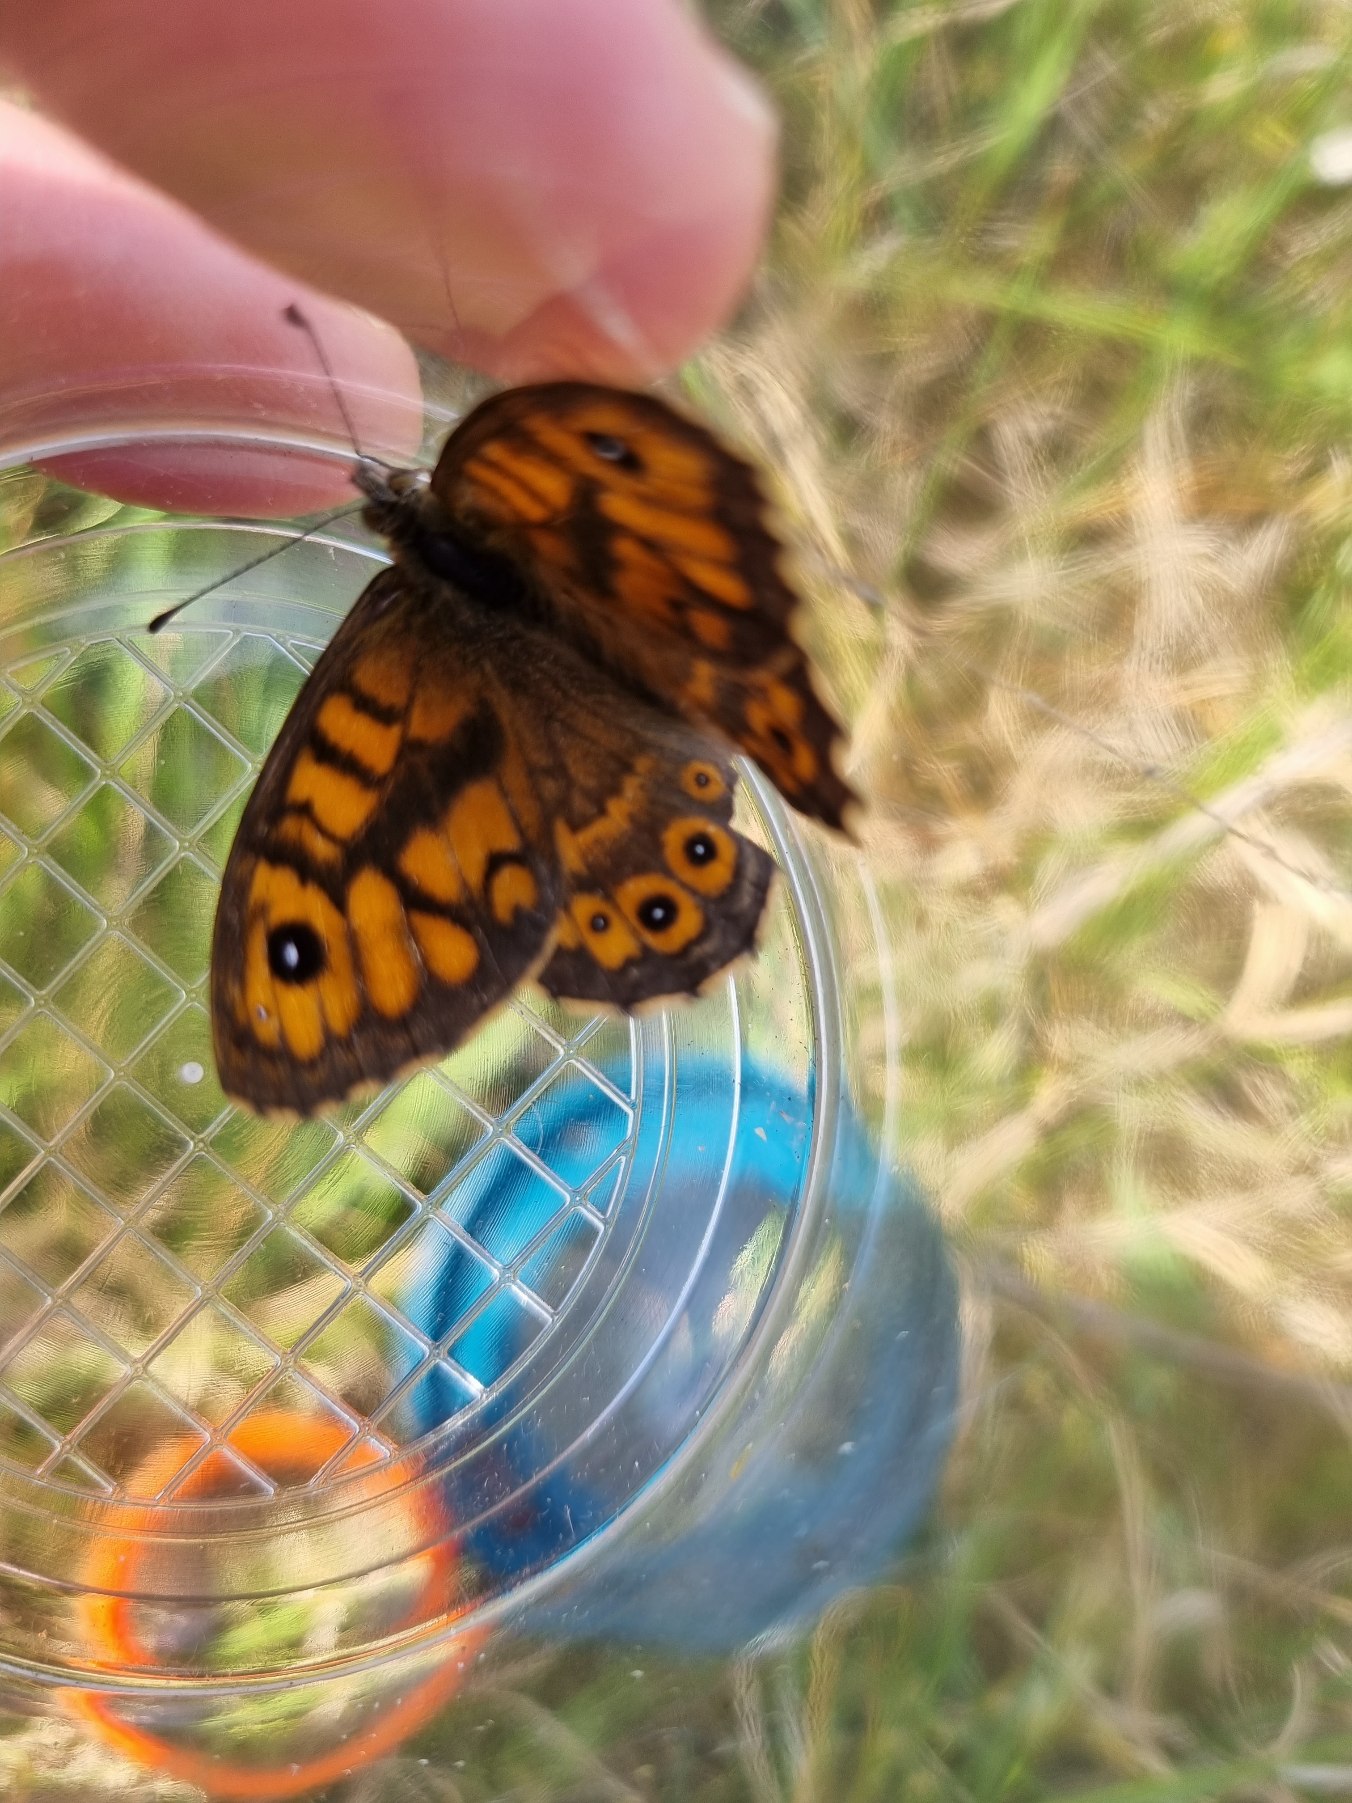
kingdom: Animalia
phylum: Arthropoda
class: Insecta
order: Lepidoptera
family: Nymphalidae
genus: Pararge
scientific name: Pararge Lasiommata megera
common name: Vejrandøje
